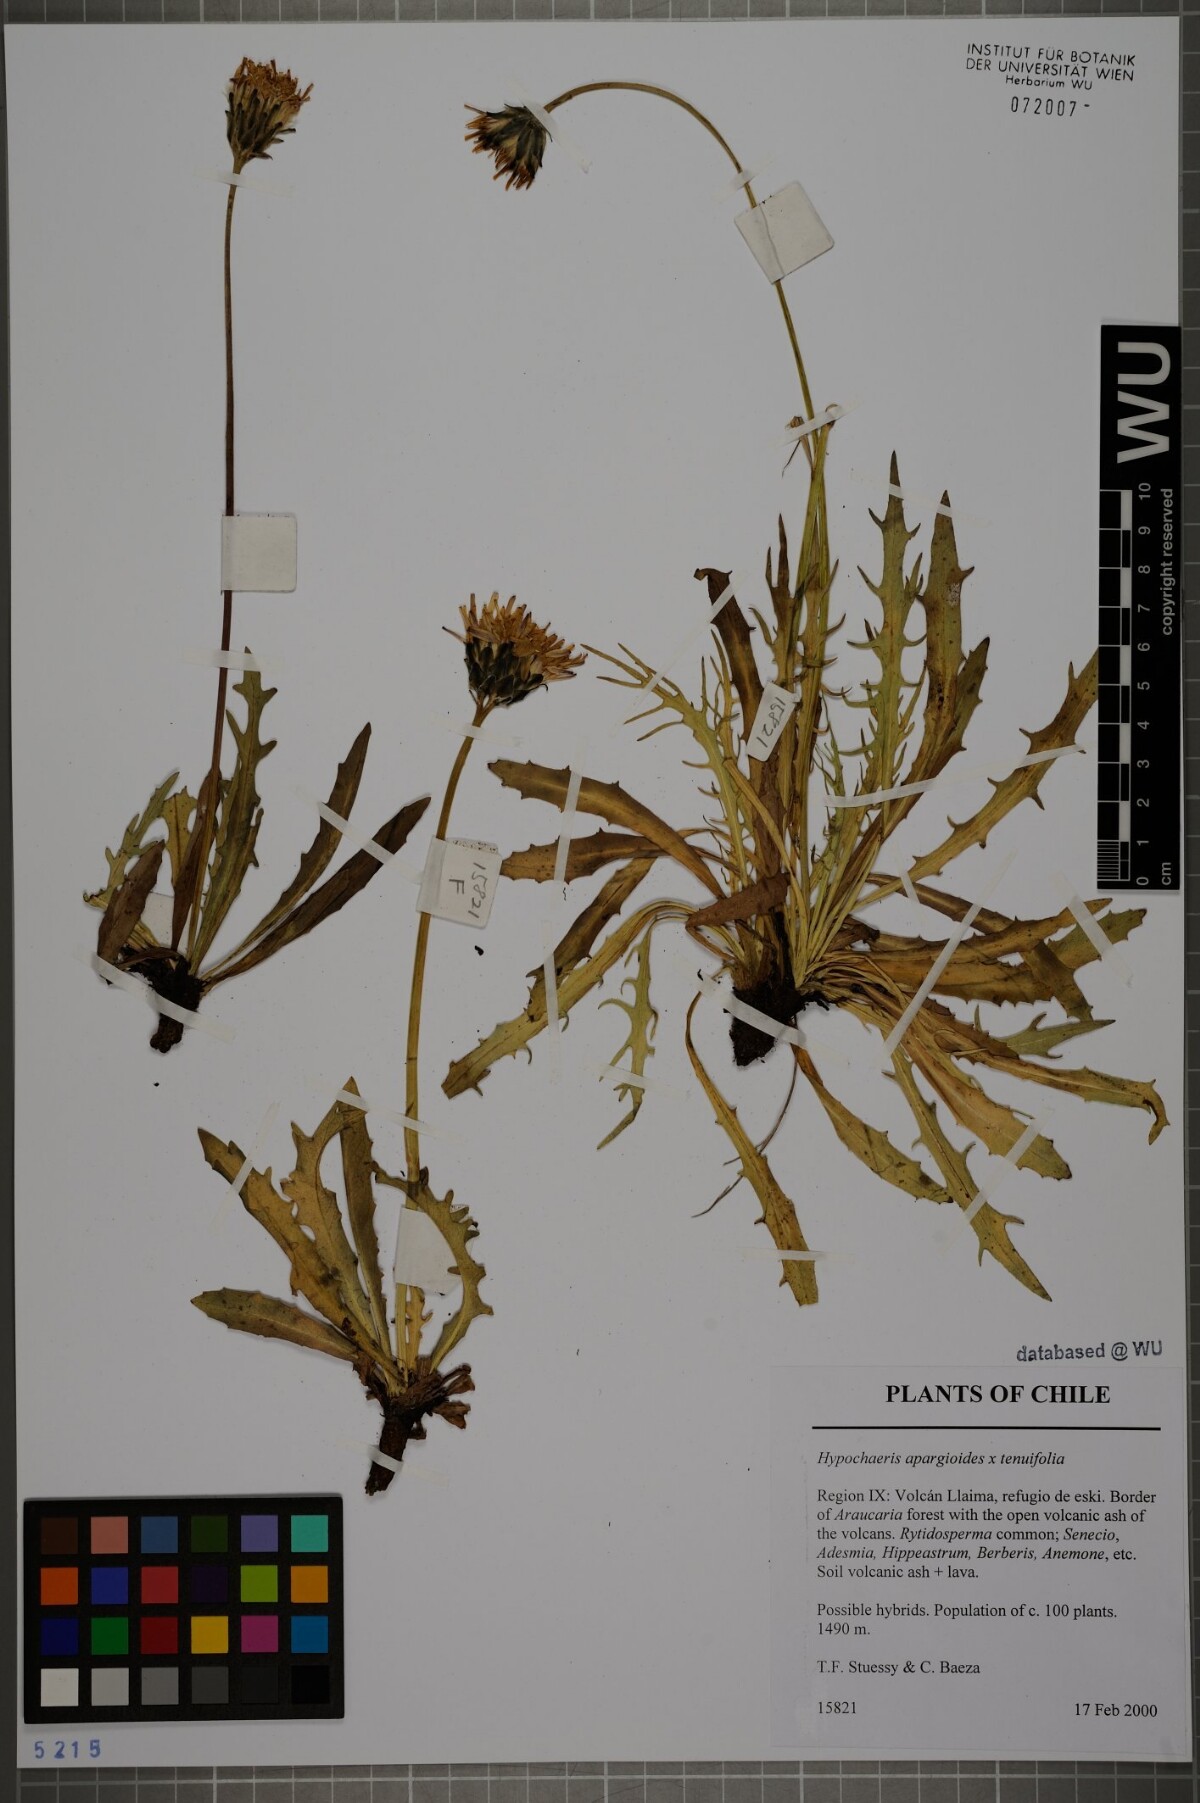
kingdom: Plantae
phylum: Tracheophyta
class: Magnoliopsida
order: Asterales
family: Asteraceae
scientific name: Asteraceae
